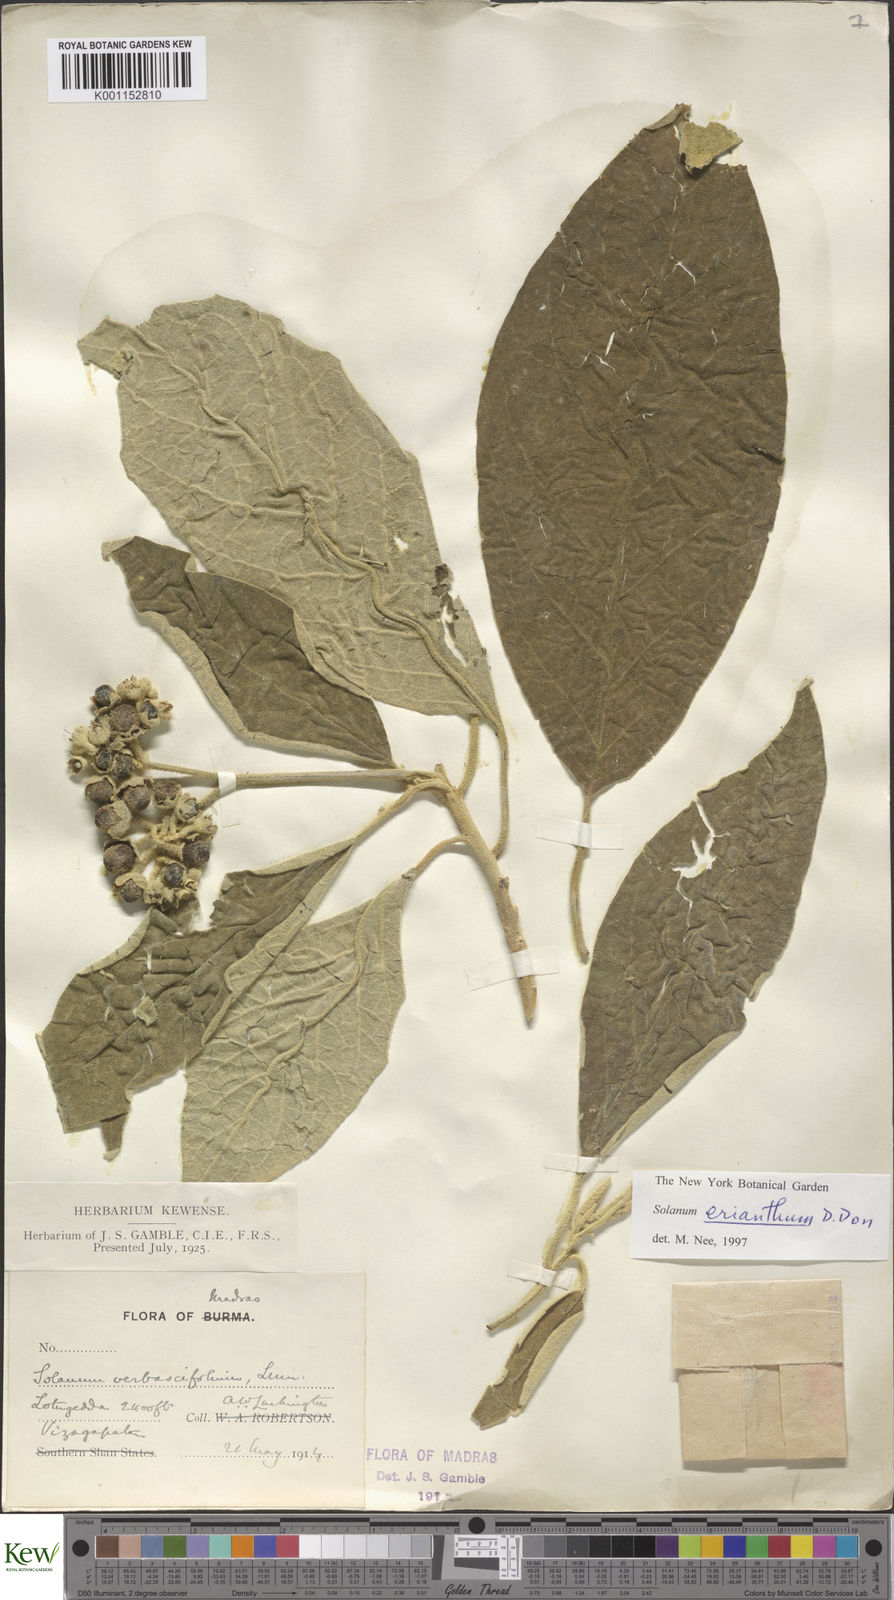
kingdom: Plantae
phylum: Tracheophyta
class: Magnoliopsida
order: Solanales
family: Solanaceae
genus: Solanum
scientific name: Solanum erianthum
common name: Tobacco-tree
